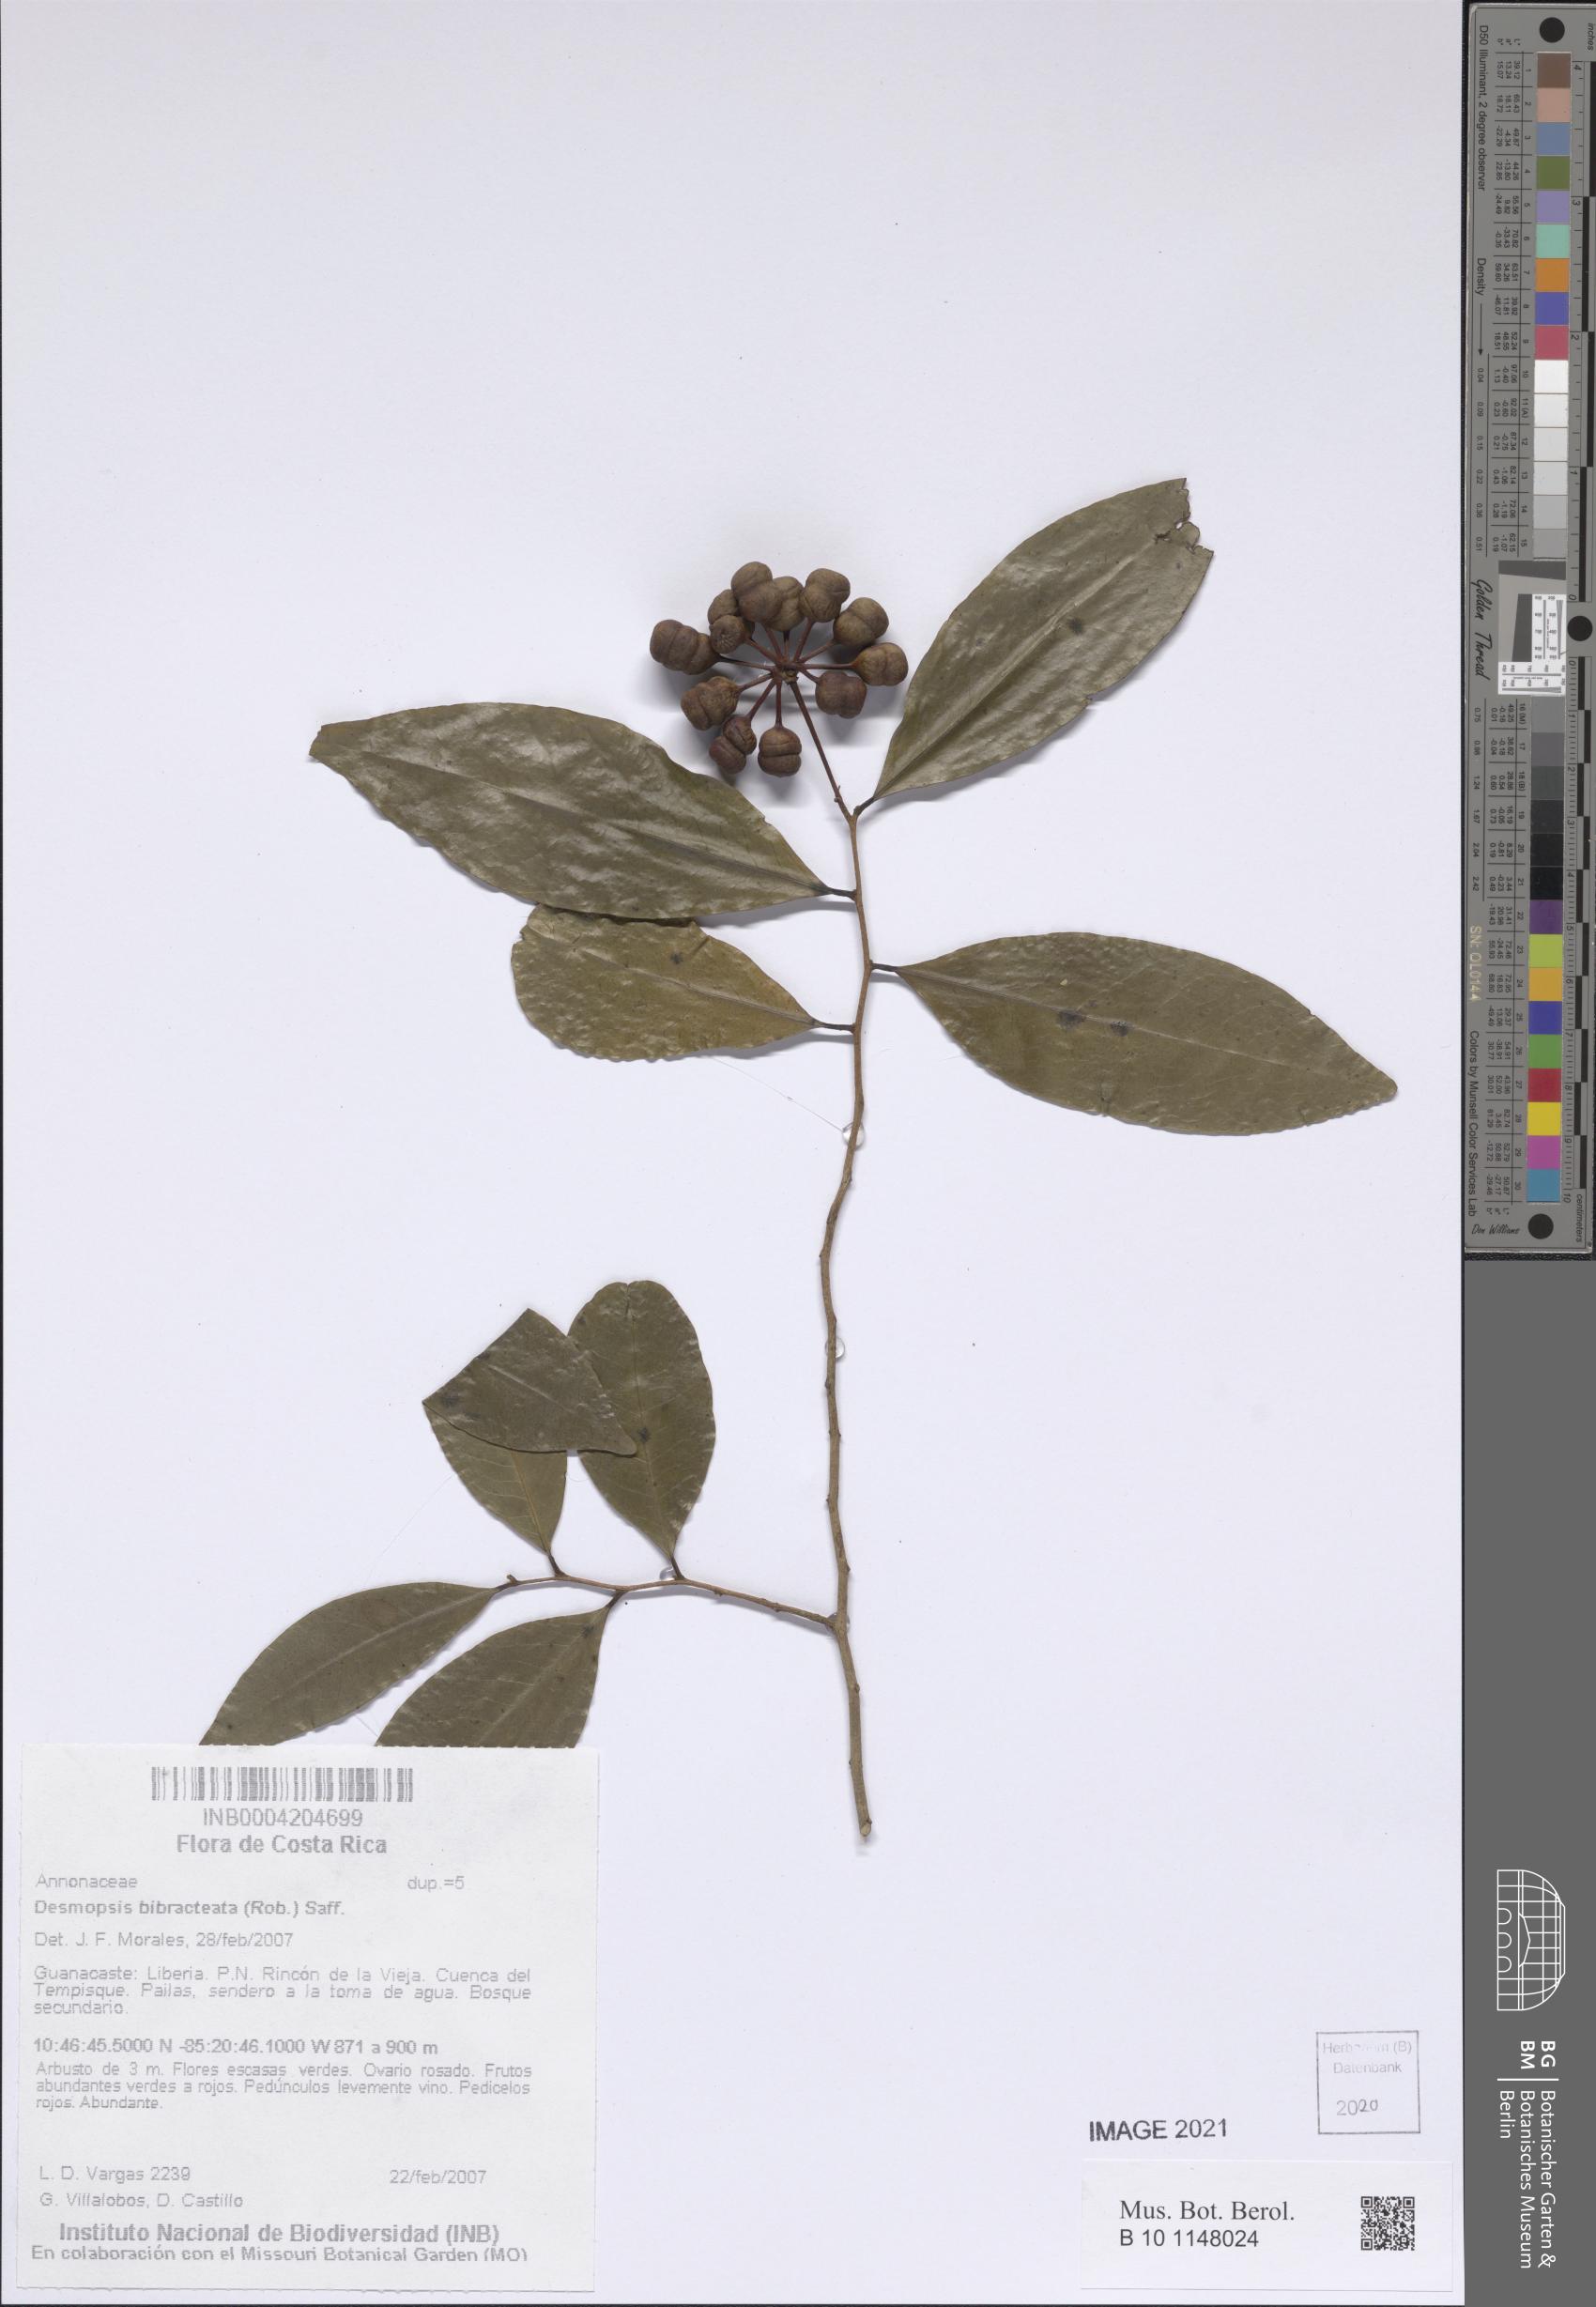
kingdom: Plantae
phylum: Tracheophyta
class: Magnoliopsida
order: Magnoliales
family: Annonaceae
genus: Desmopsis
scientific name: Desmopsis bibracteata
